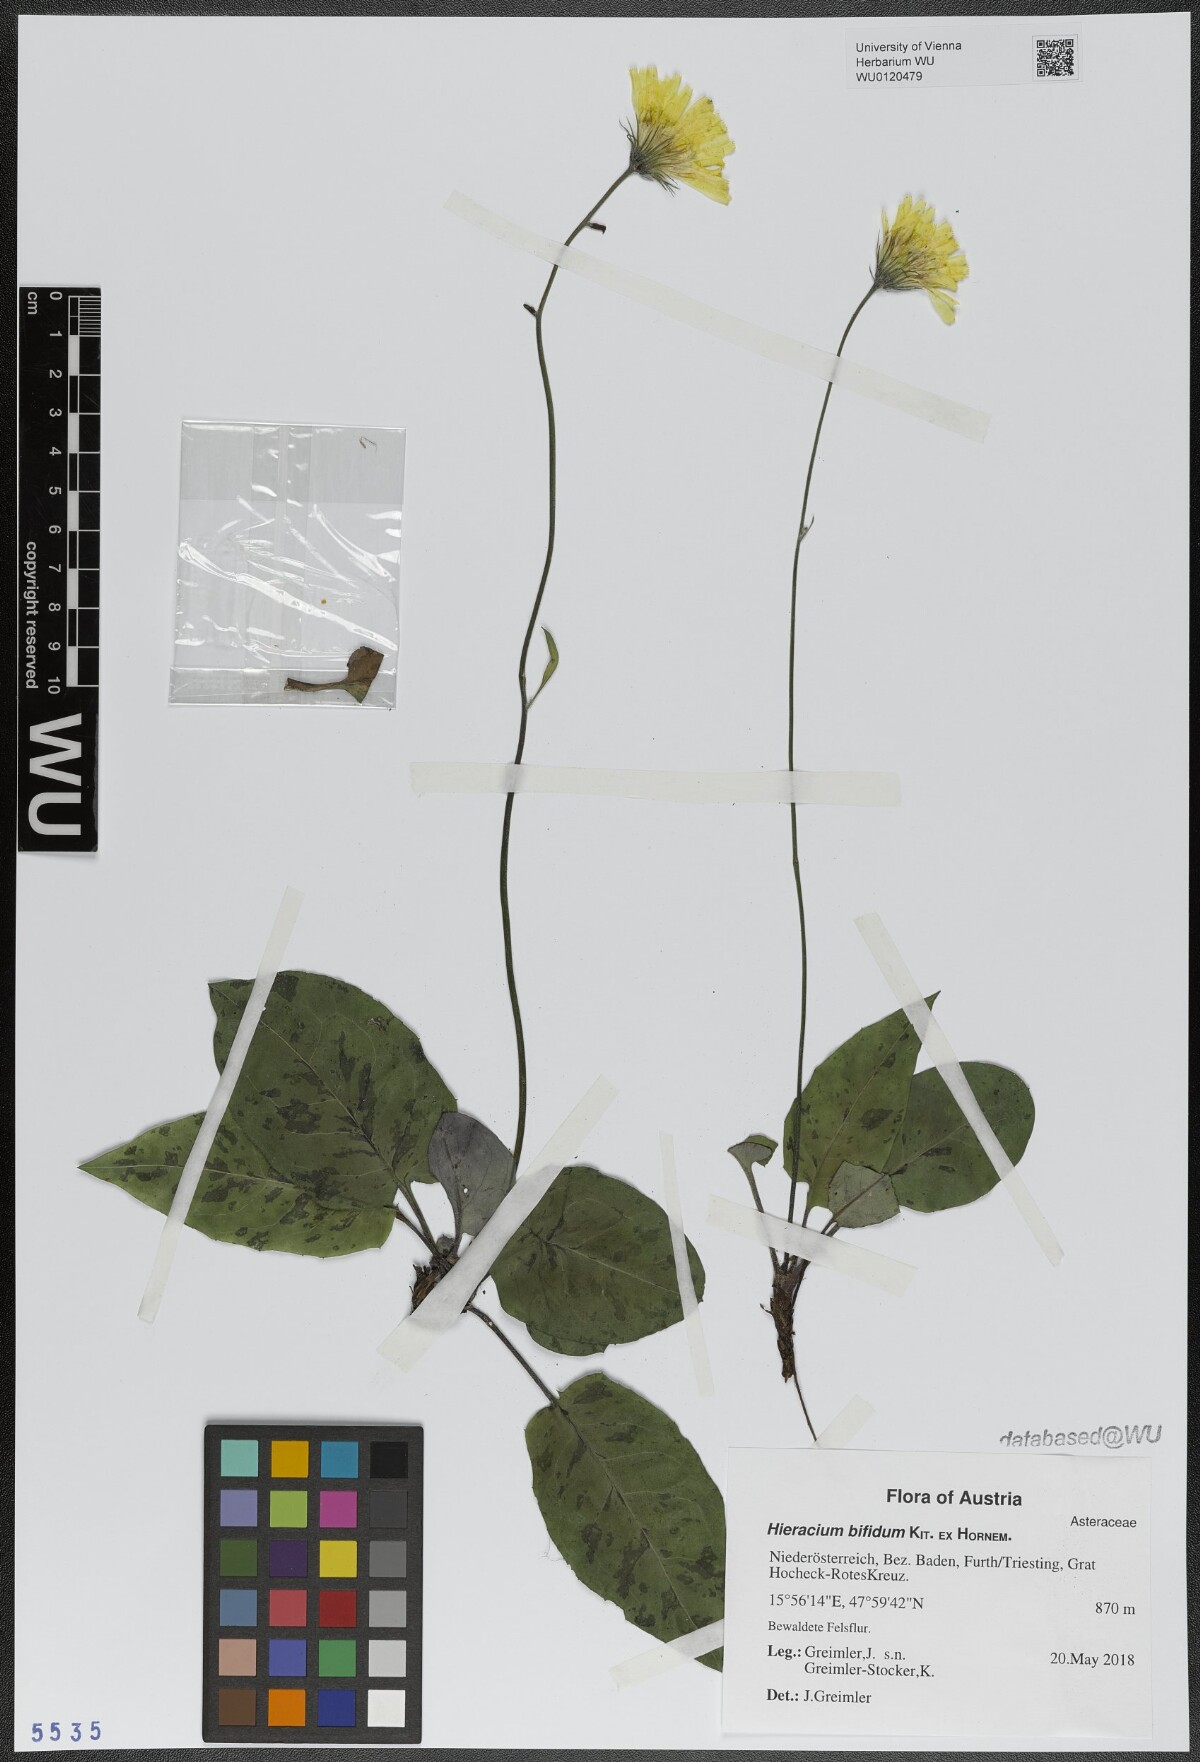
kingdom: Plantae
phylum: Tracheophyta
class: Magnoliopsida
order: Asterales
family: Asteraceae
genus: Hieracium
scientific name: Hieracium bifidum
